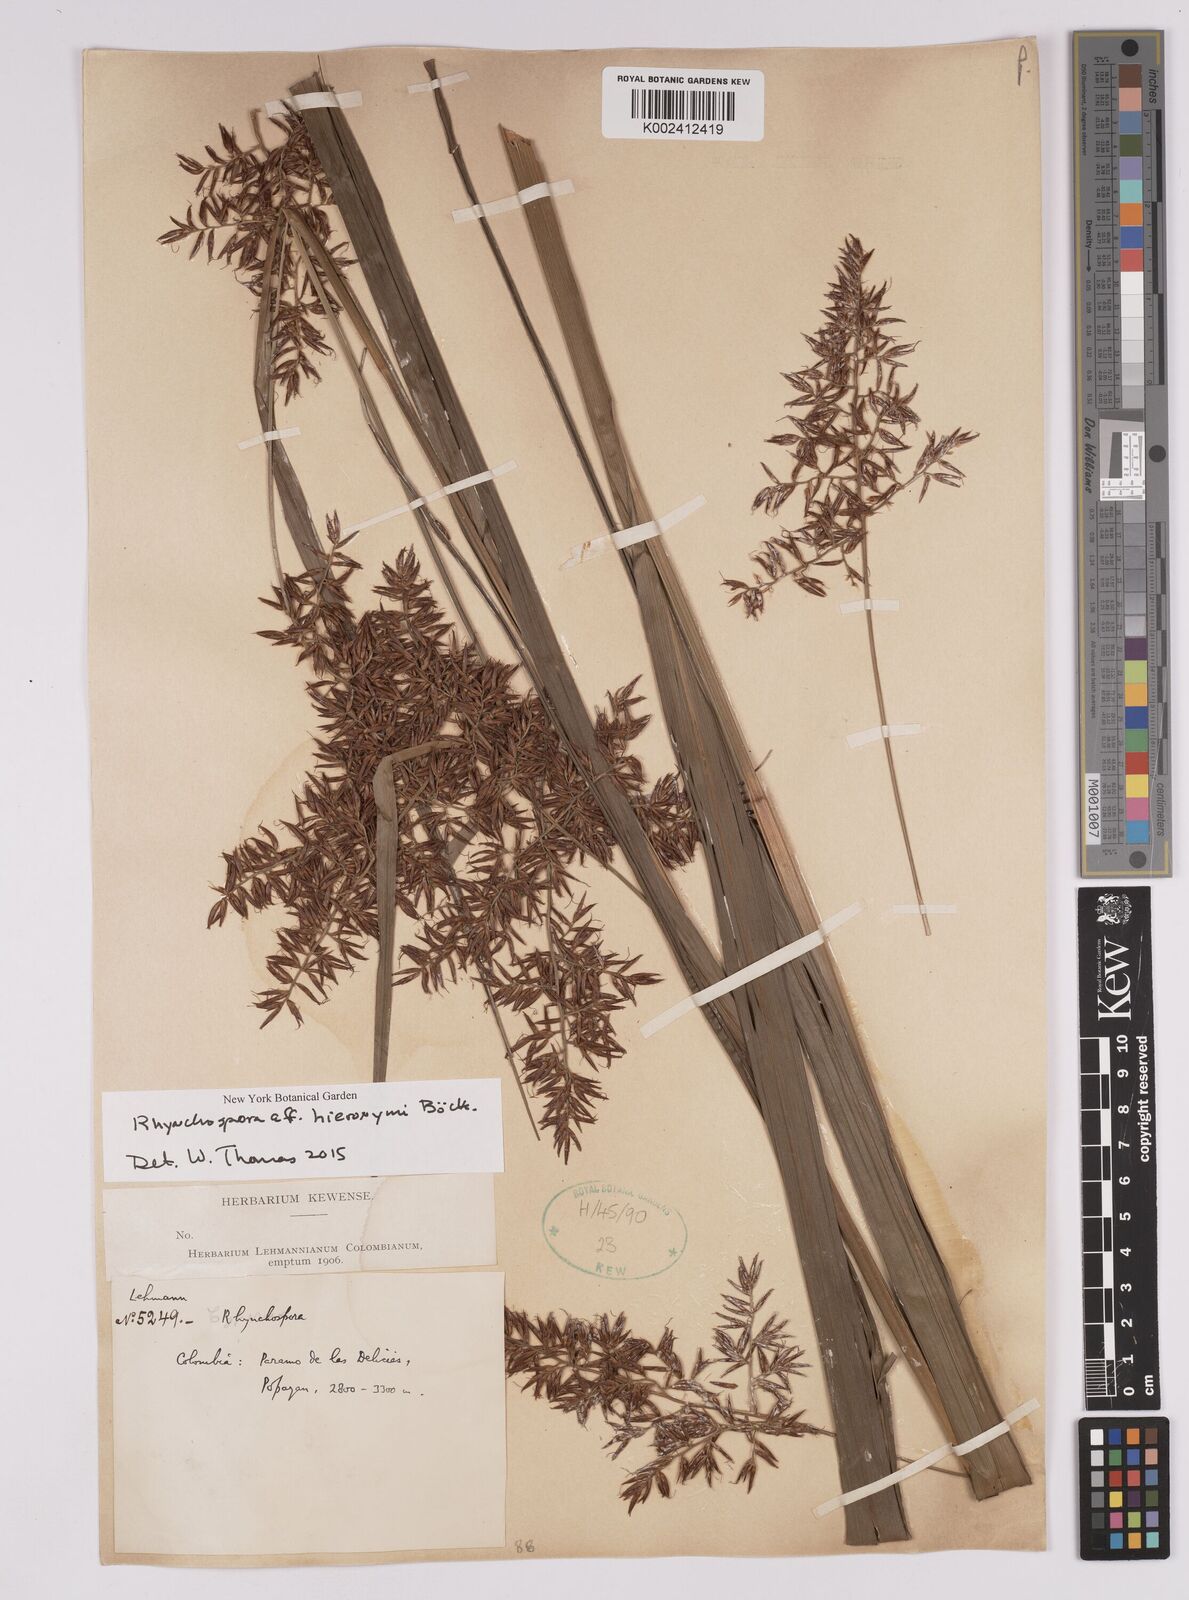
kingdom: Plantae
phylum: Tracheophyta
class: Liliopsida
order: Poales
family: Cyperaceae
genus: Rhynchospora
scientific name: Rhynchospora hieronymi
